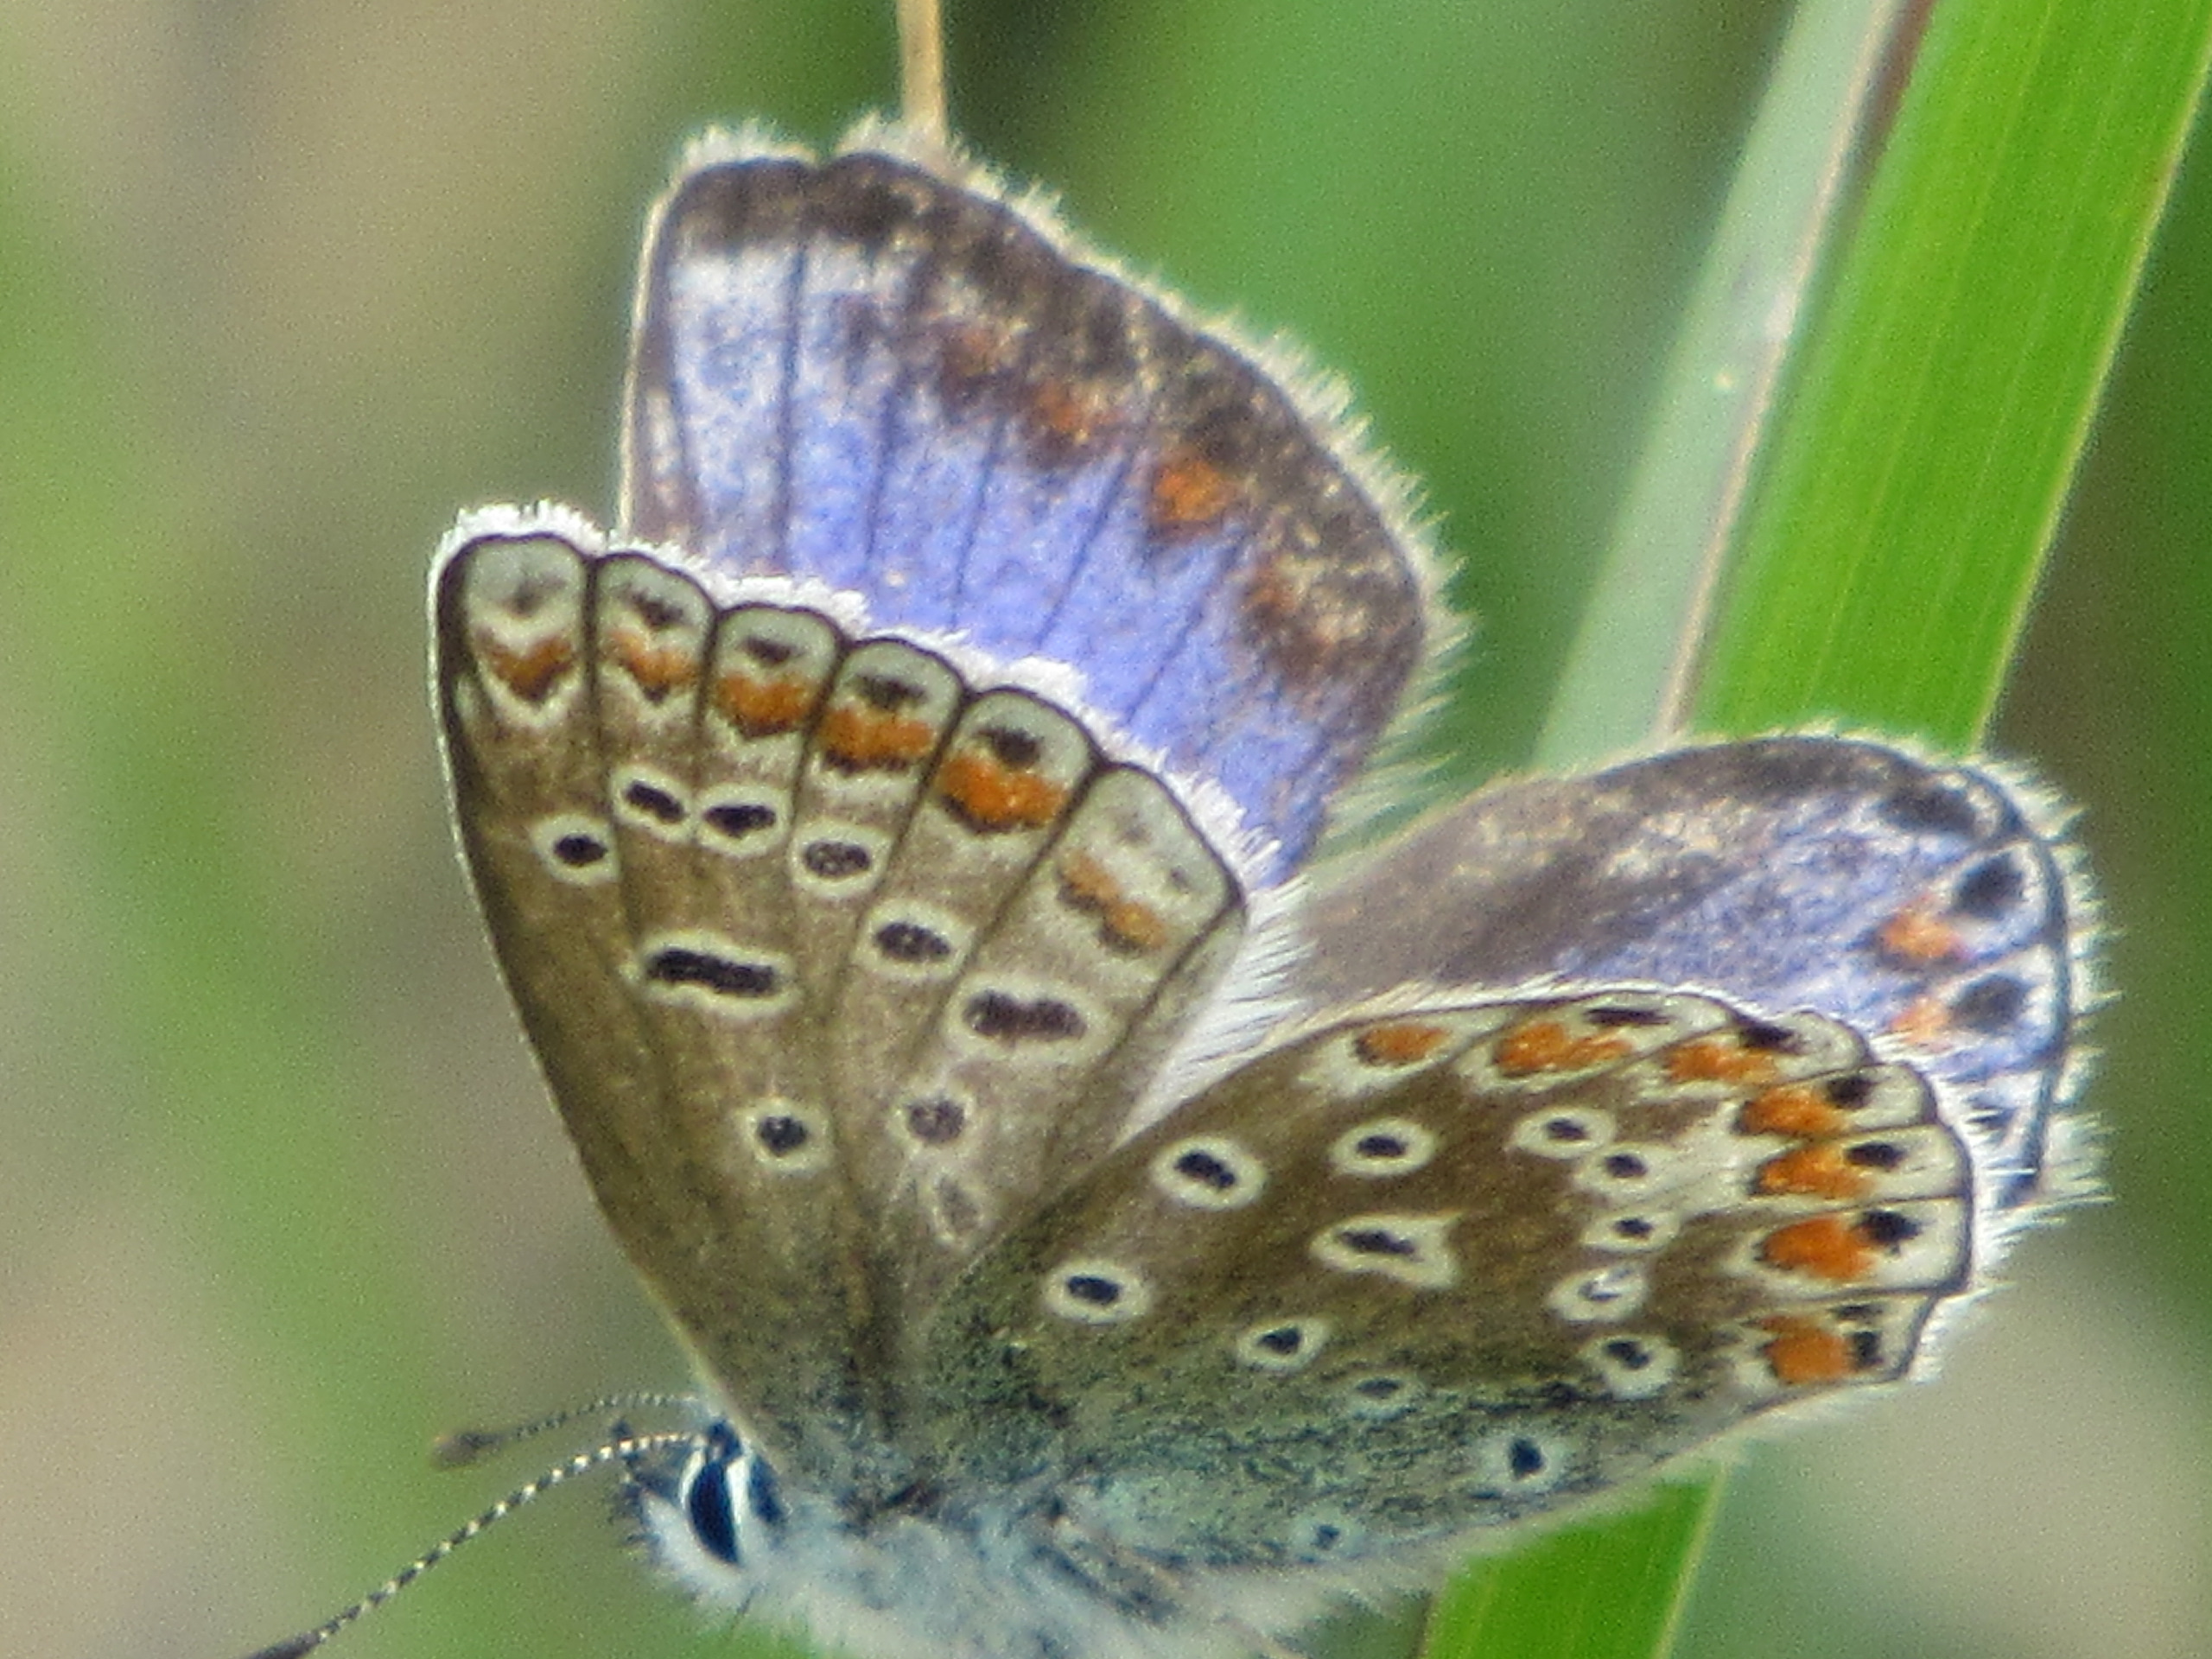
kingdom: Animalia
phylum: Arthropoda
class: Insecta
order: Lepidoptera
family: Lycaenidae
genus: Polyommatus
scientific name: Polyommatus icarus
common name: Almindelig blåfugl
